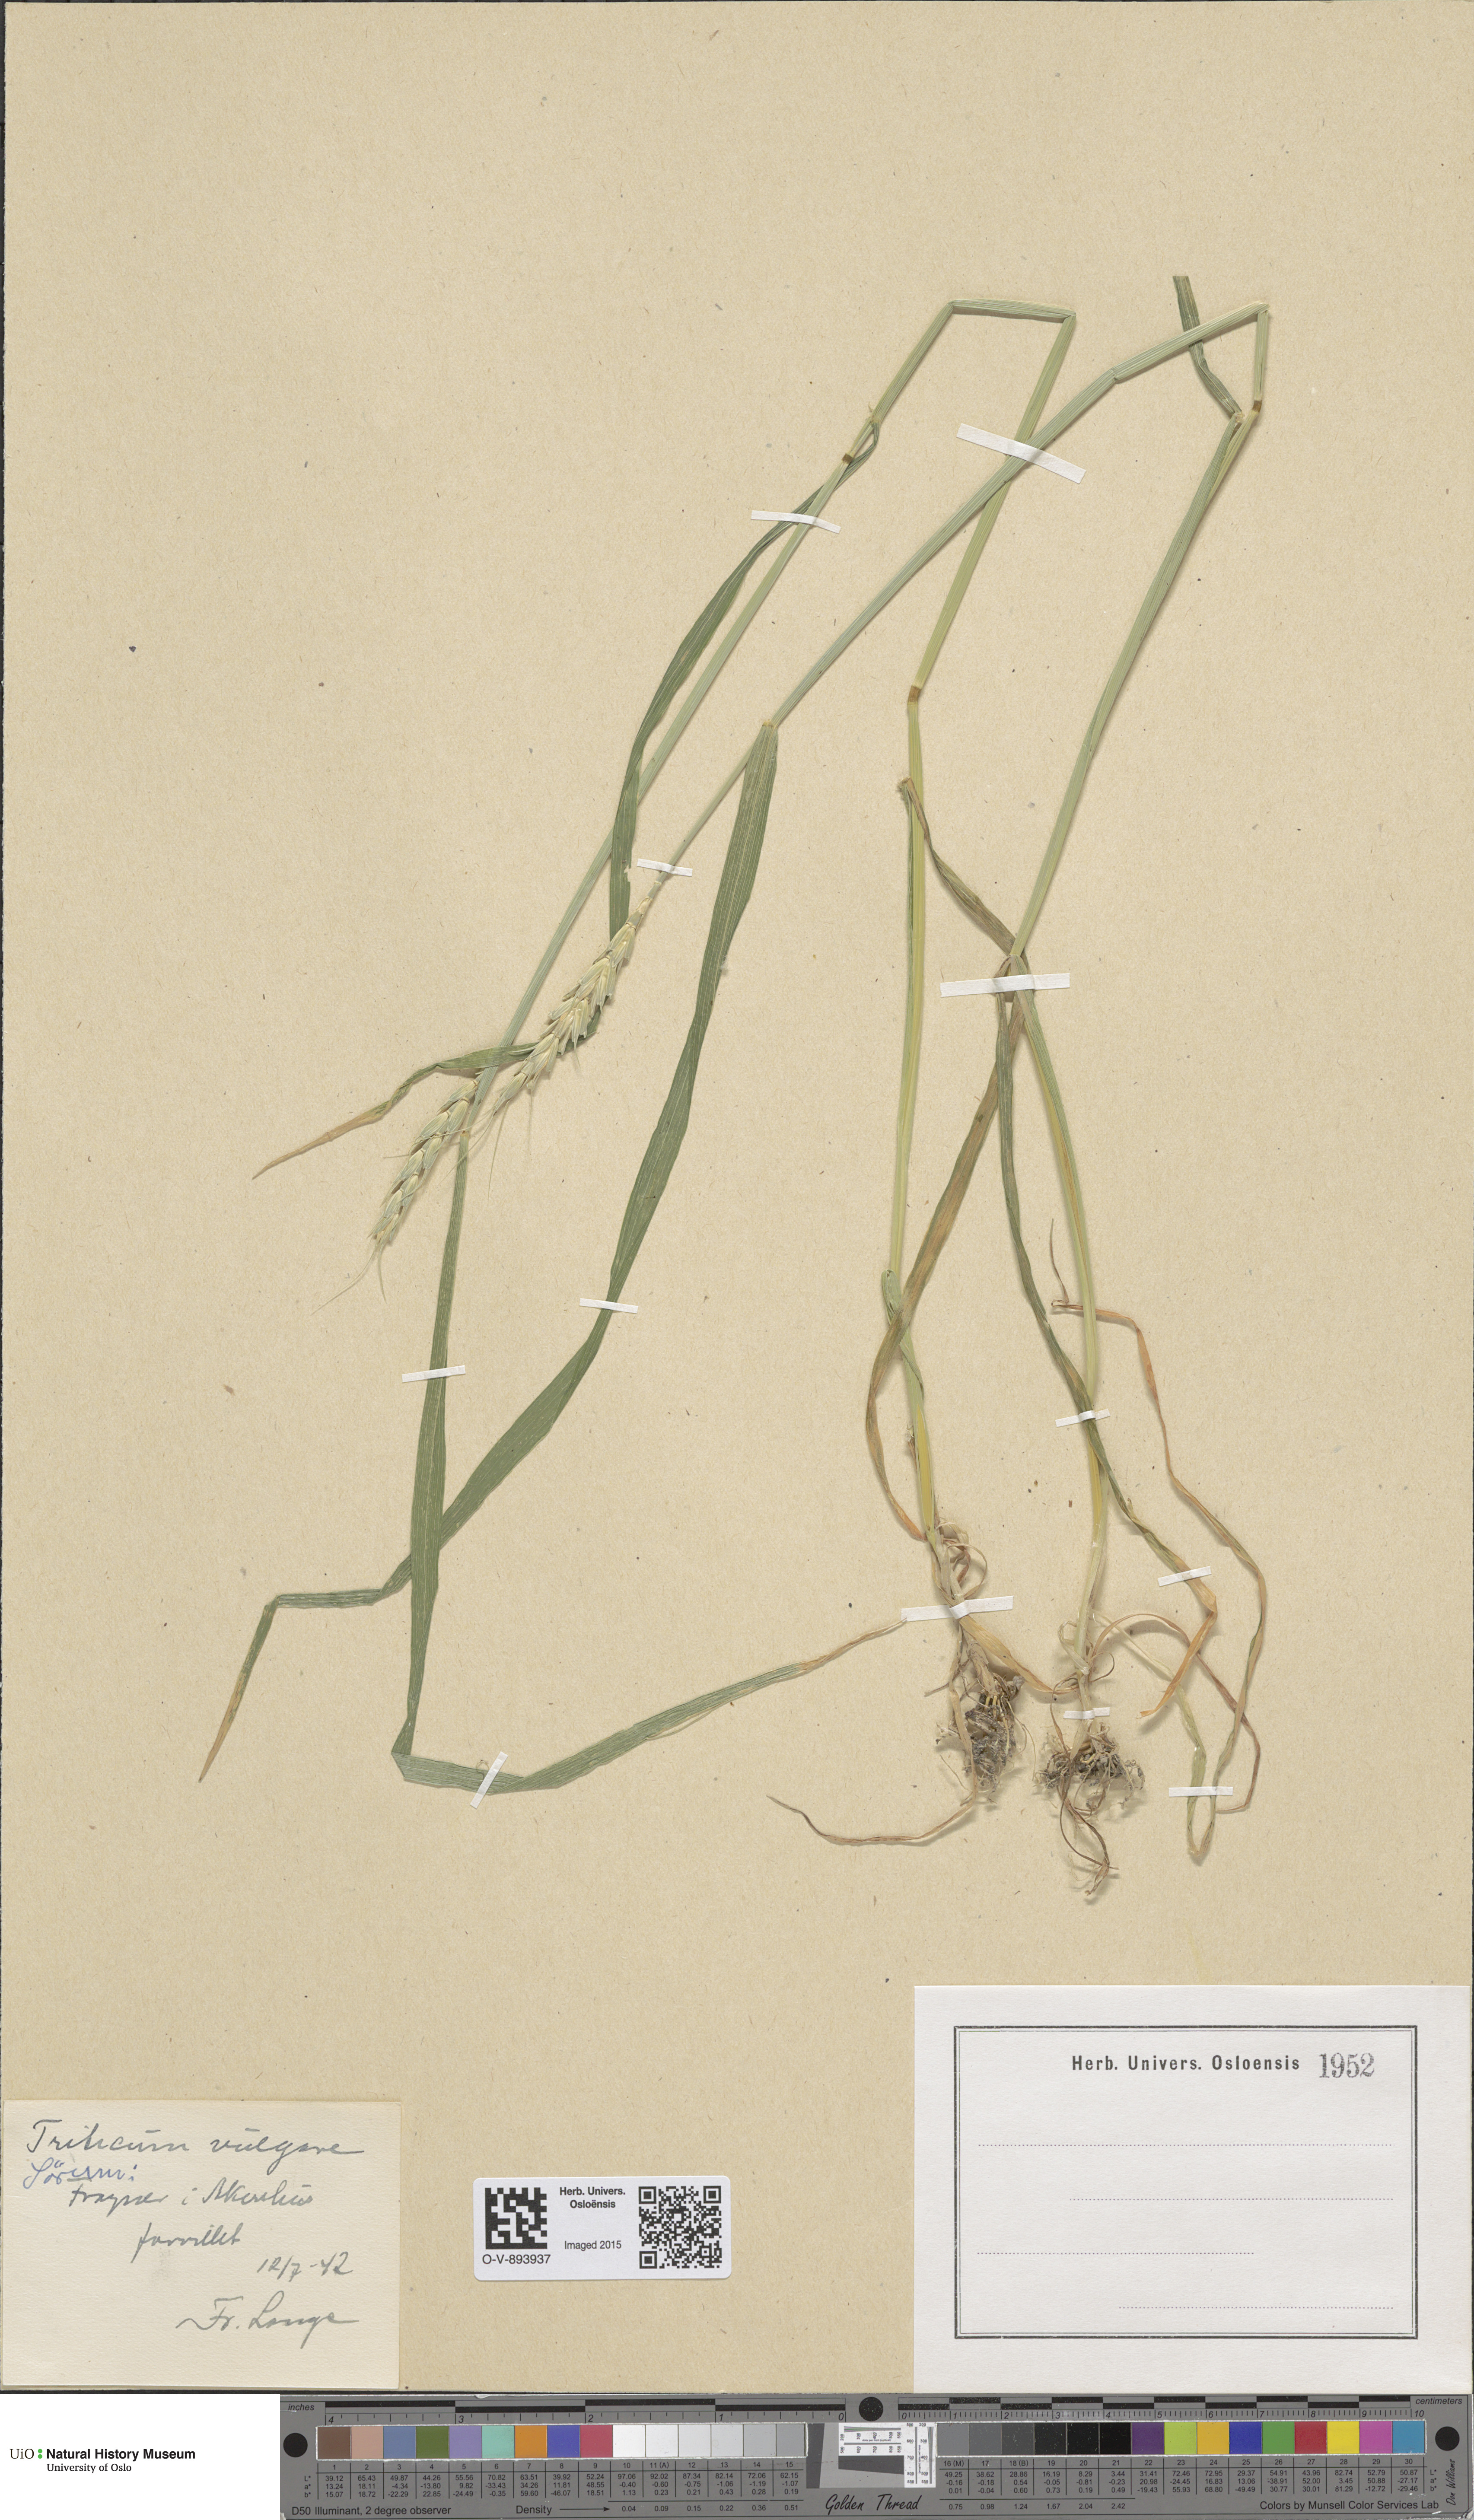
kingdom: Plantae
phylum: Tracheophyta
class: Liliopsida
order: Poales
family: Poaceae
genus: Triticum
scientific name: Triticum aestivum
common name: Common wheat
